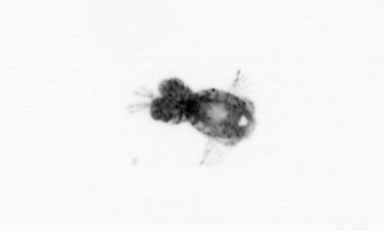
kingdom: Animalia
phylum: Arthropoda
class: Copepoda
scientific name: Copepoda
